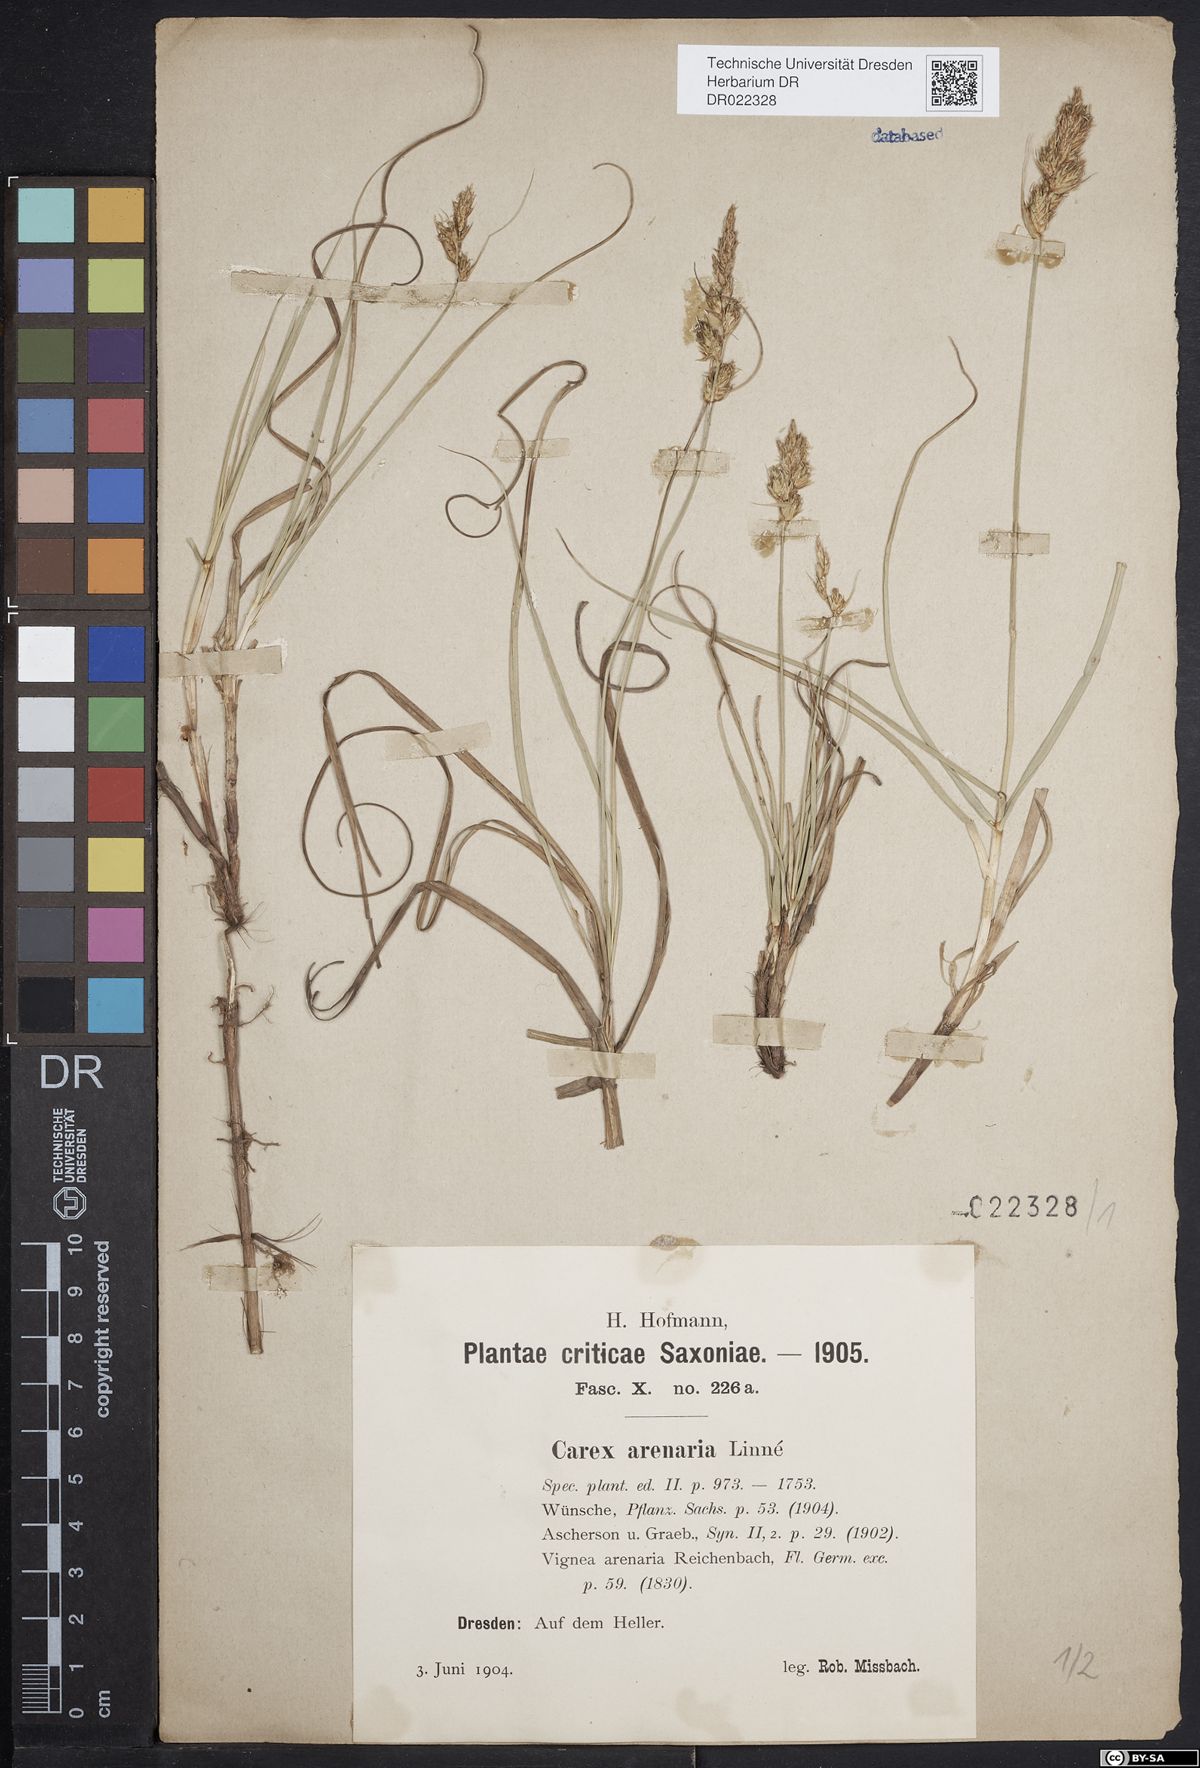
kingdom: Plantae
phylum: Tracheophyta
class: Liliopsida
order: Poales
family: Cyperaceae
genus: Carex
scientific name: Carex arenaria
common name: Sand sedge
